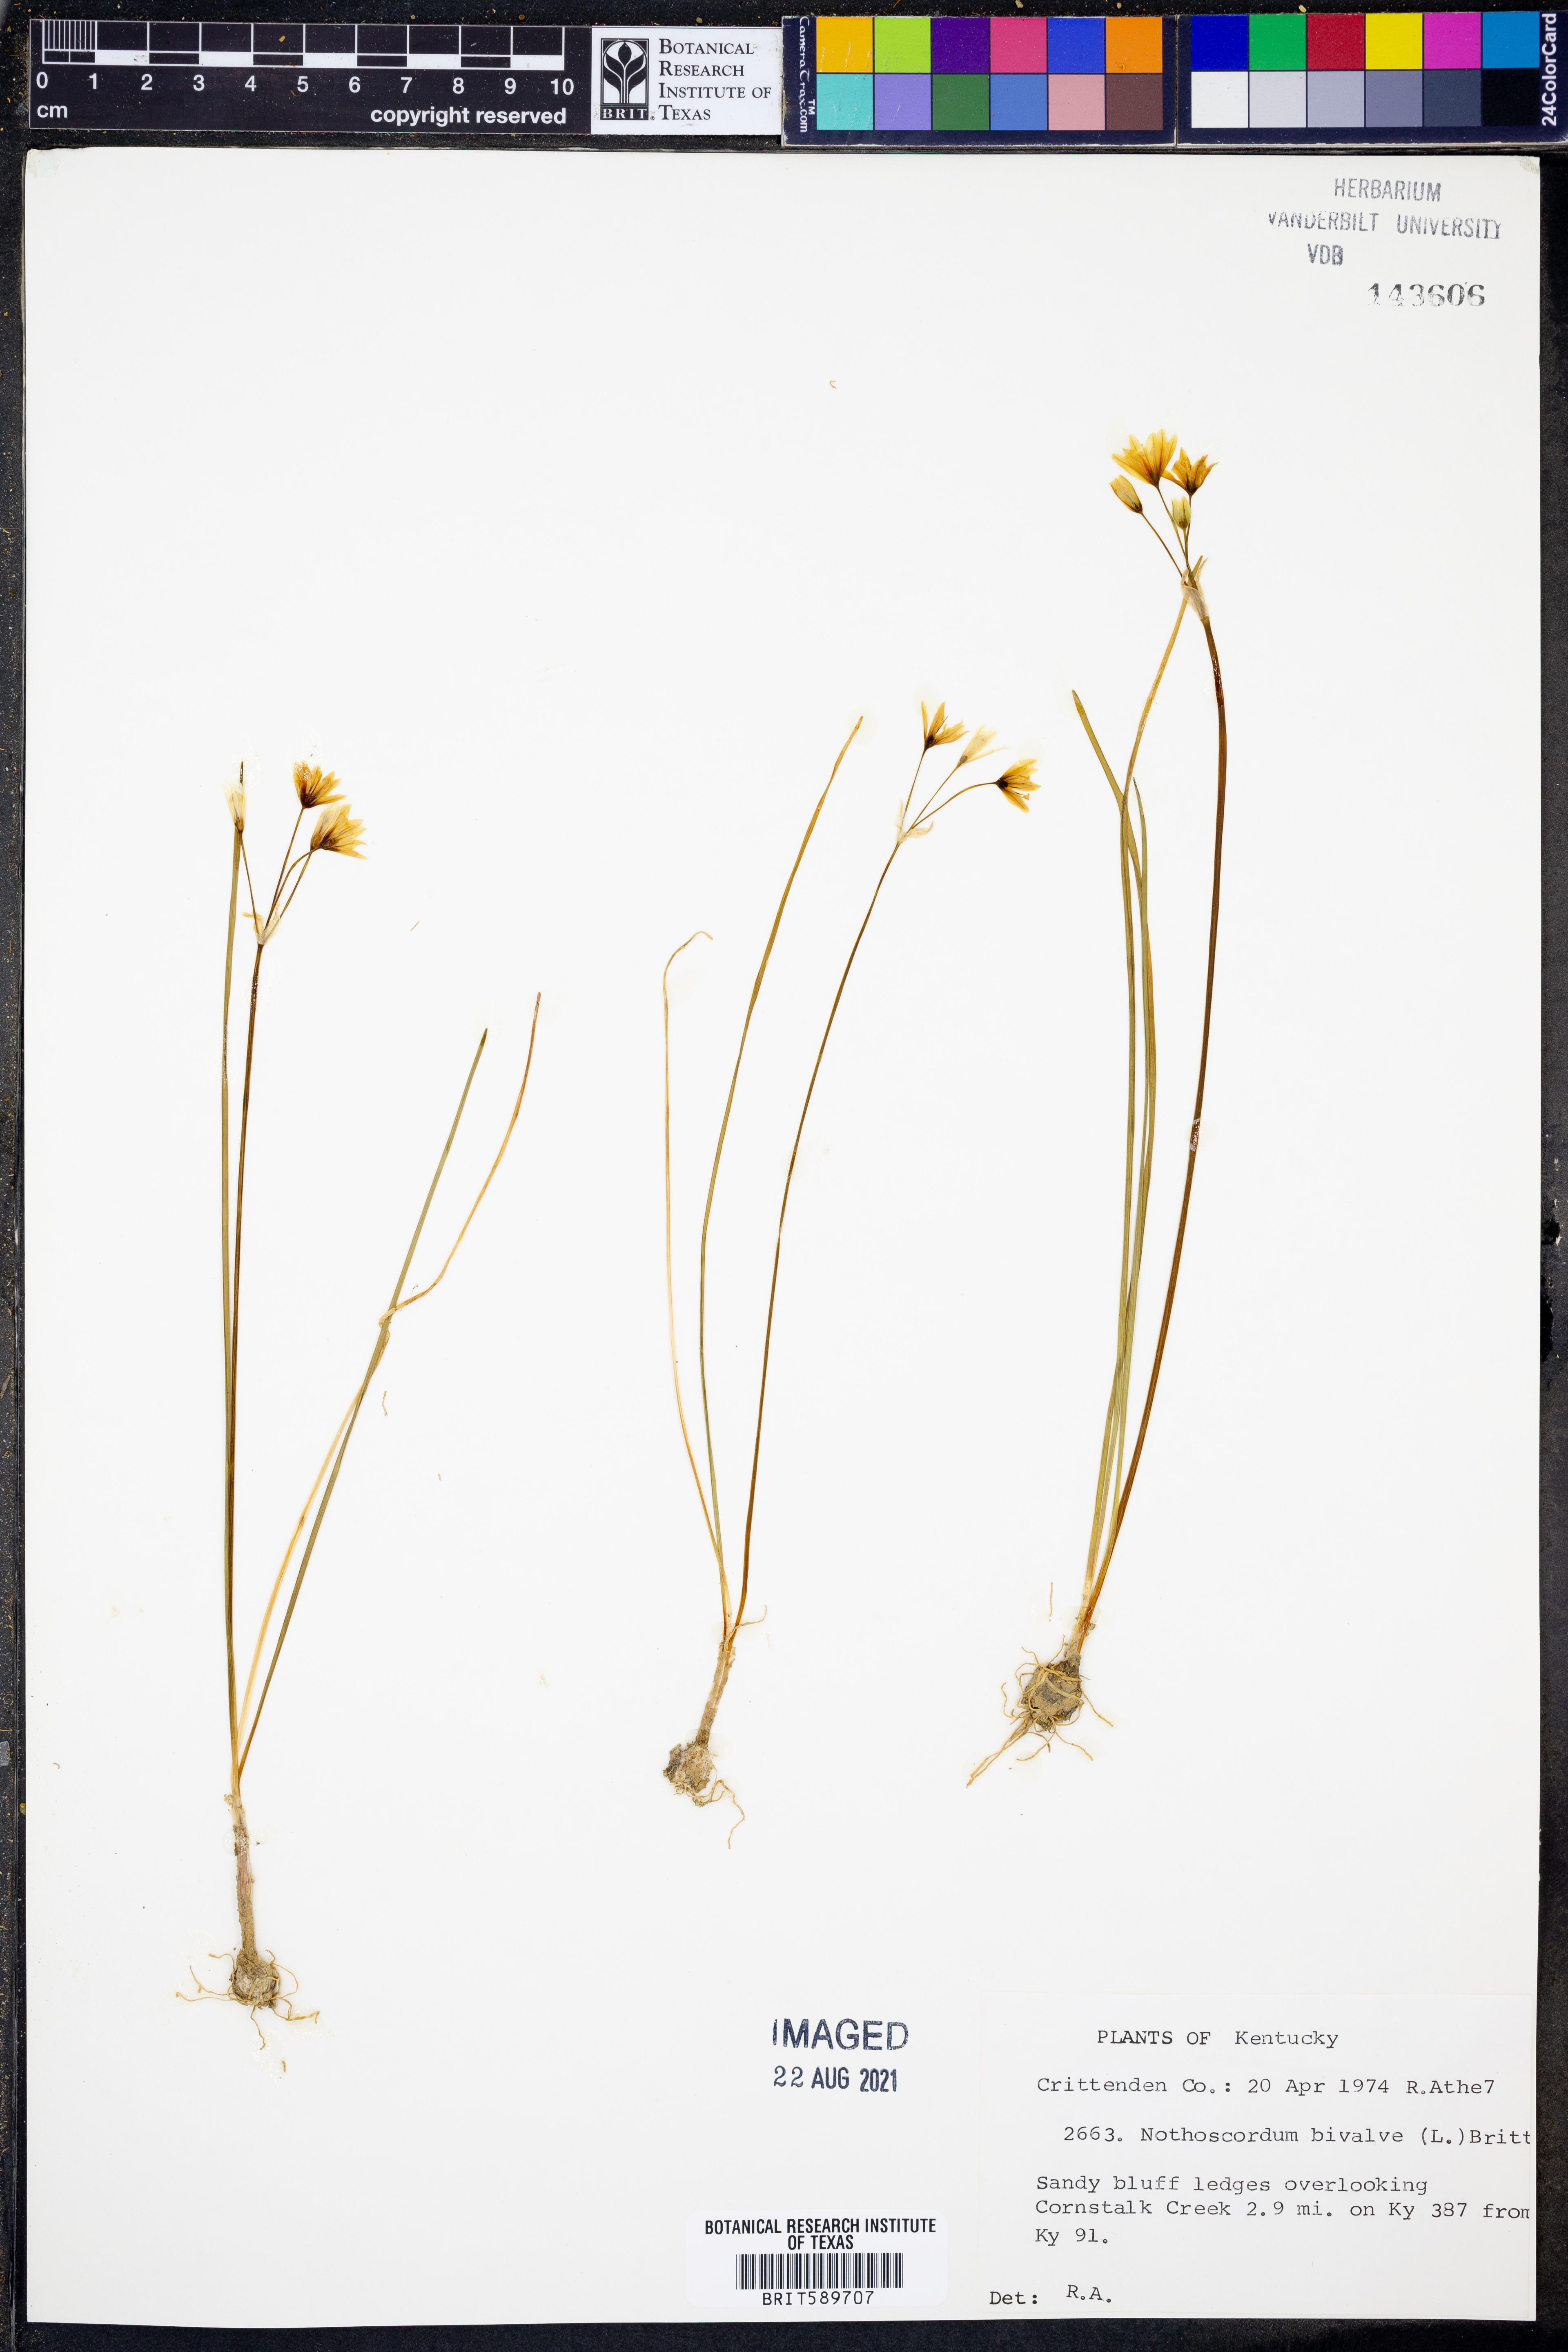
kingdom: Plantae
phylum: Tracheophyta
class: Liliopsida
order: Asparagales
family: Amaryllidaceae
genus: Nothoscordum
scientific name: Nothoscordum bivalve
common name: Crow-poison
